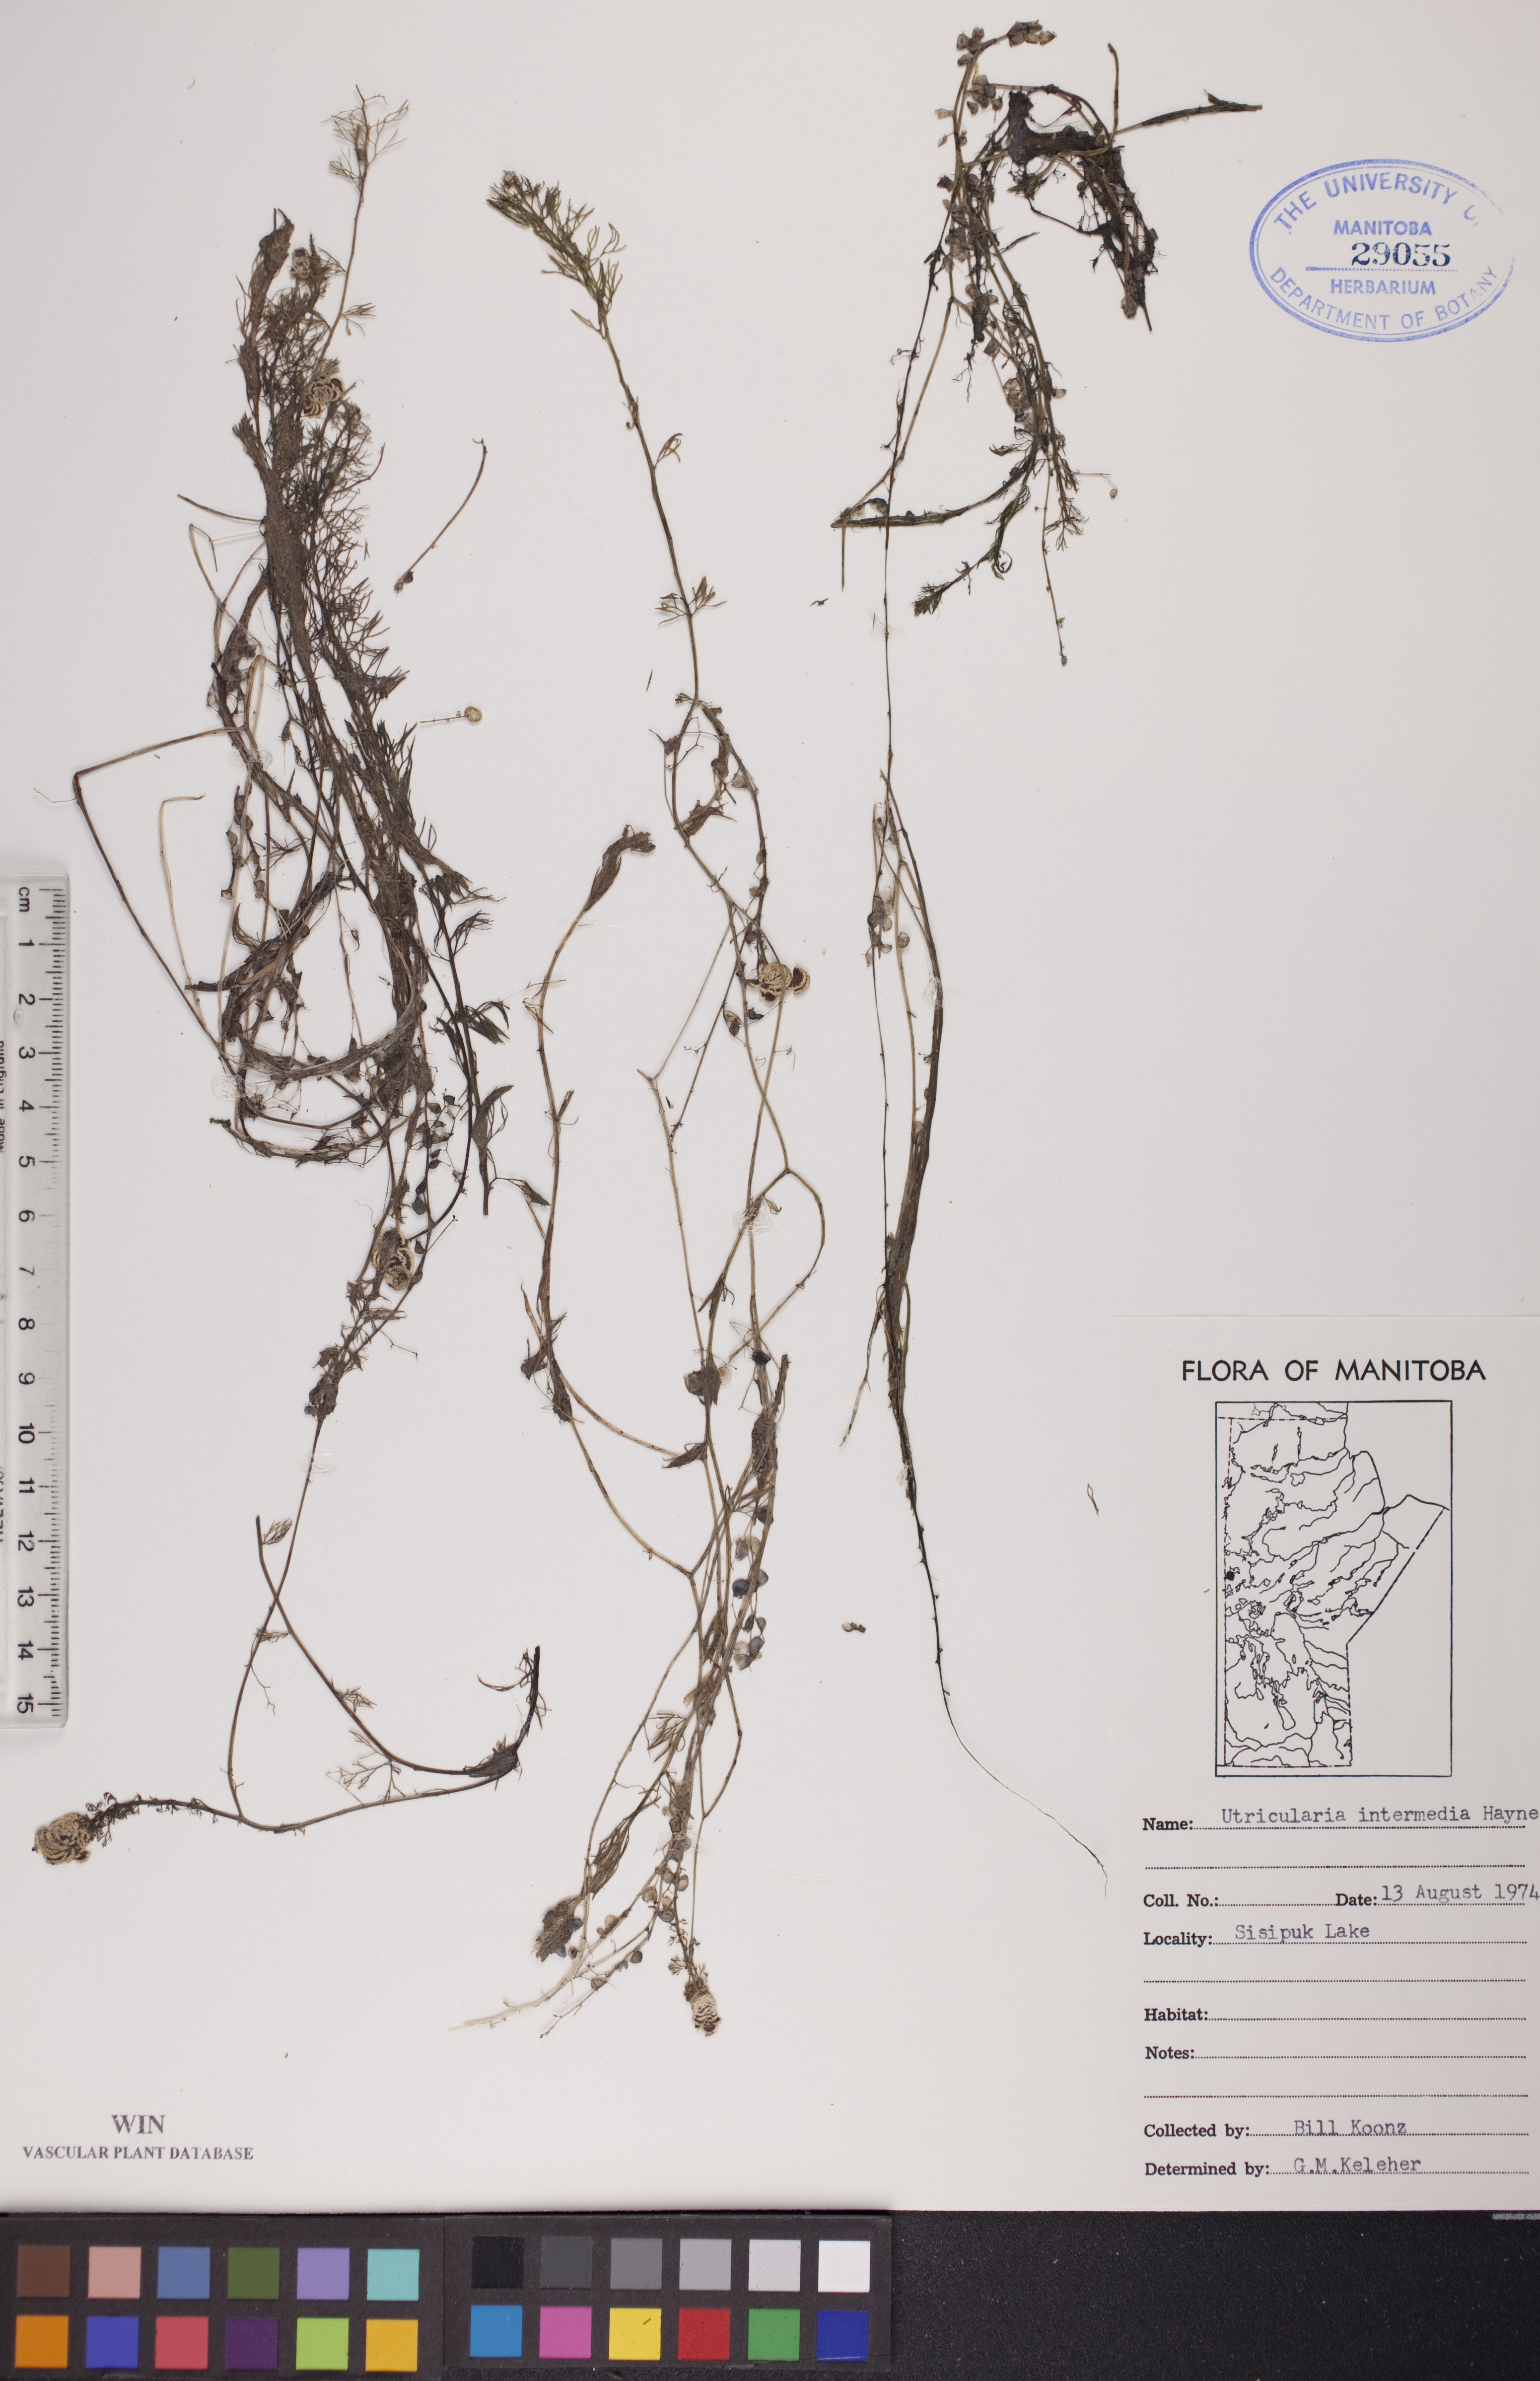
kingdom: Plantae
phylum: Tracheophyta
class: Magnoliopsida
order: Lamiales
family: Lentibulariaceae
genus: Utricularia
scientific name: Utricularia intermedia
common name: Intermediate bladderwort
